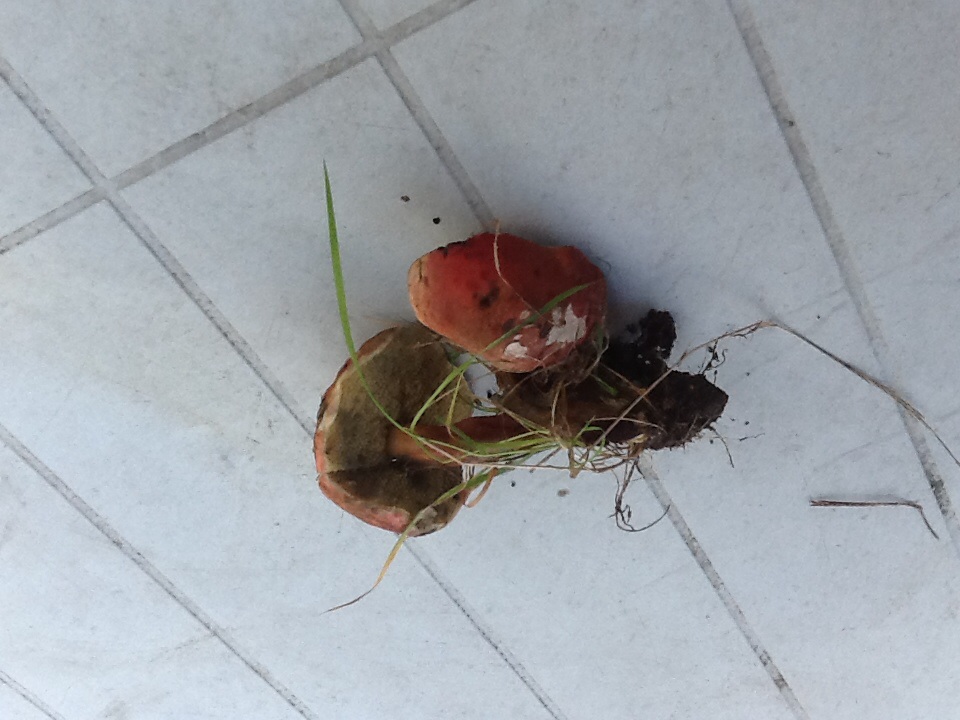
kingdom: Fungi
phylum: Basidiomycota
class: Agaricomycetes
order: Boletales
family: Boletaceae
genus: Hortiboletus
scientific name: Hortiboletus rubellus
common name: blodrød rørhat
